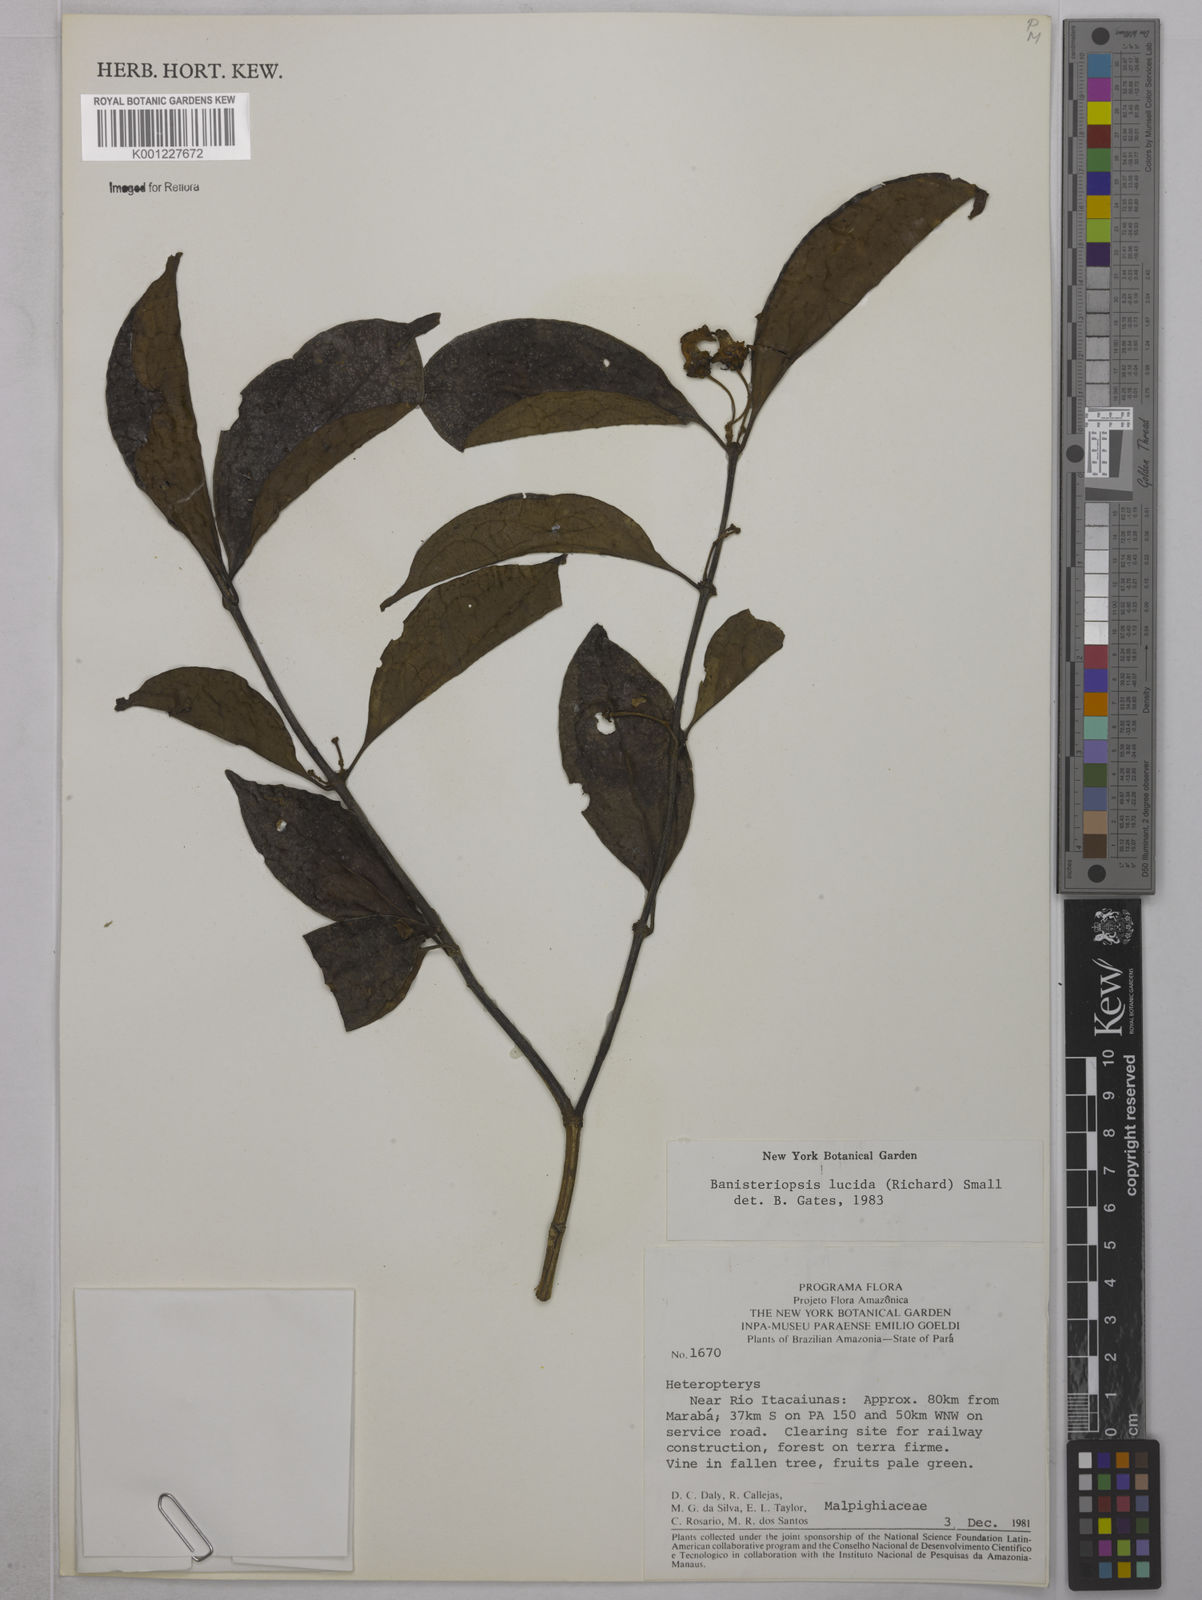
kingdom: Plantae
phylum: Tracheophyta
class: Magnoliopsida
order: Malpighiales
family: Malpighiaceae
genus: Diplopterys
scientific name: Diplopterys lucida
